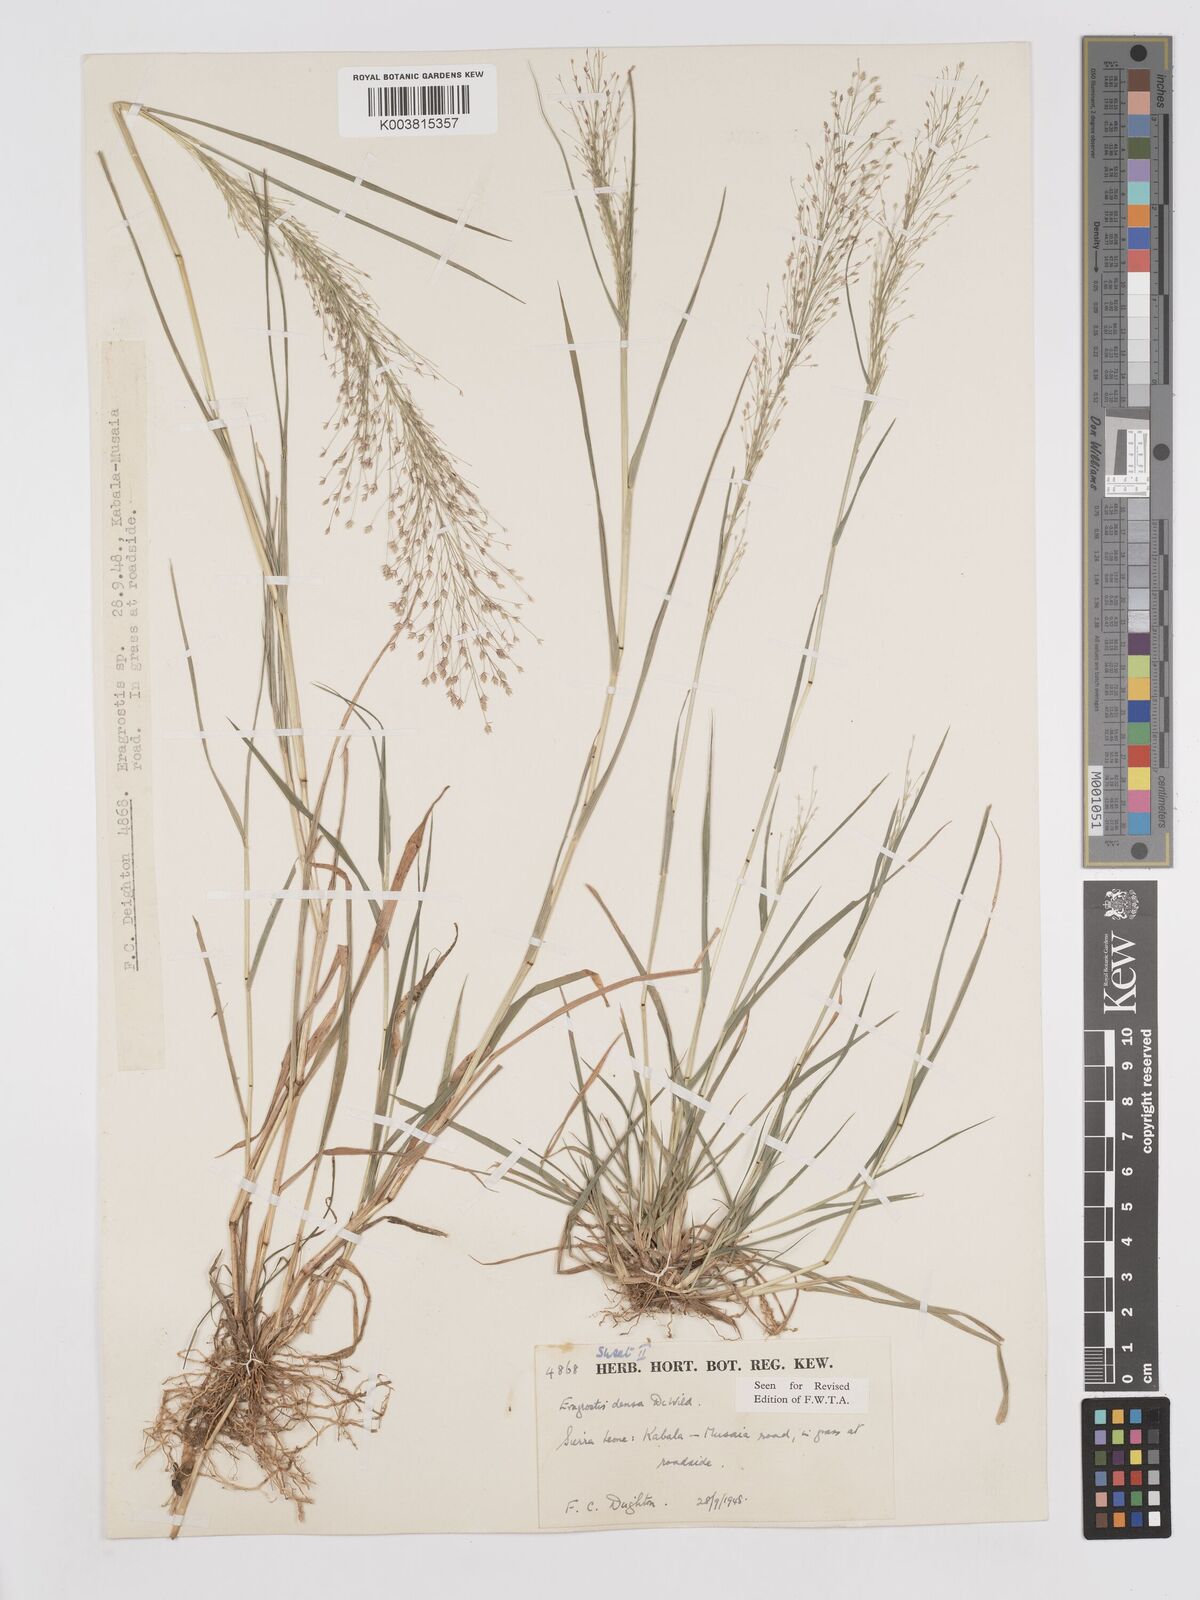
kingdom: Plantae
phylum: Tracheophyta
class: Liliopsida
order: Poales
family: Poaceae
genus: Eragrostis
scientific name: Eragrostis welwitschii
